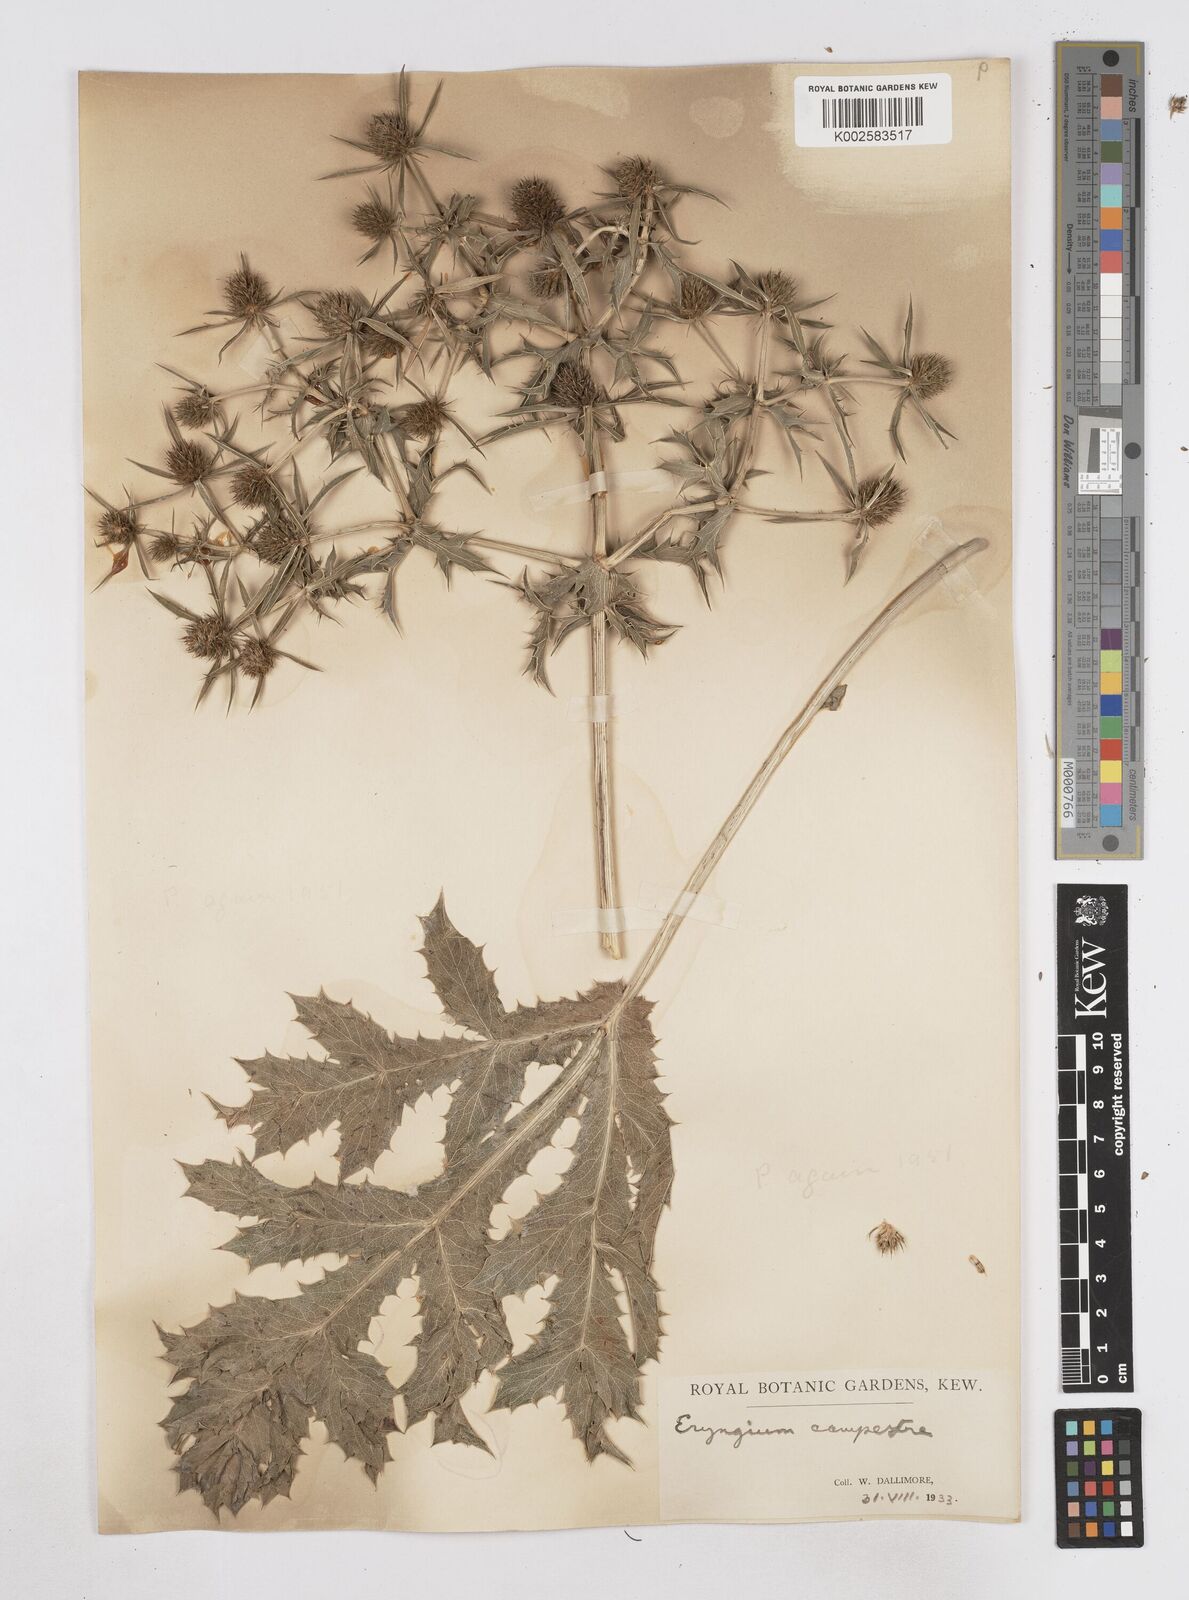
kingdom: Plantae
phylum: Tracheophyta
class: Magnoliopsida
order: Apiales
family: Apiaceae
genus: Eryngium
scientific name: Eryngium campestre
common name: Field eryngo
